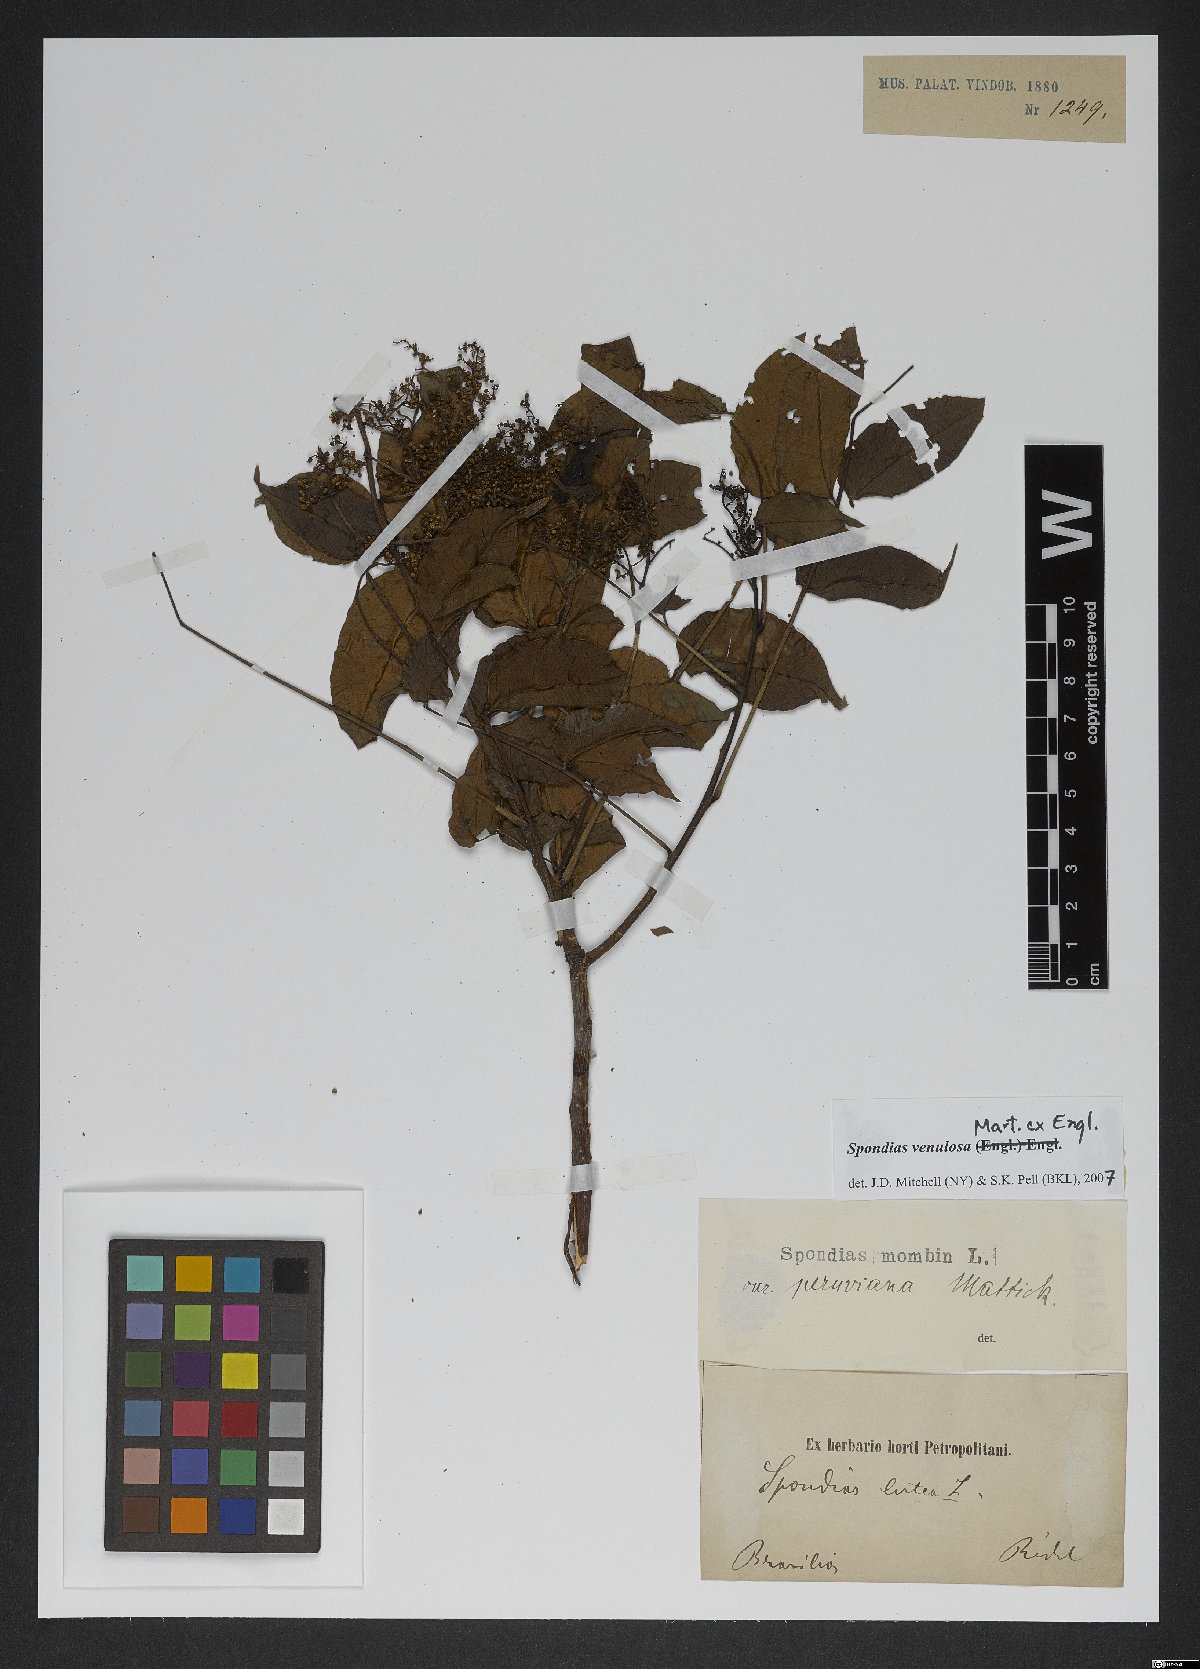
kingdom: Plantae
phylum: Tracheophyta
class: Magnoliopsida
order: Sapindales
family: Anacardiaceae
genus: Spondias
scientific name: Spondias admirabilis
